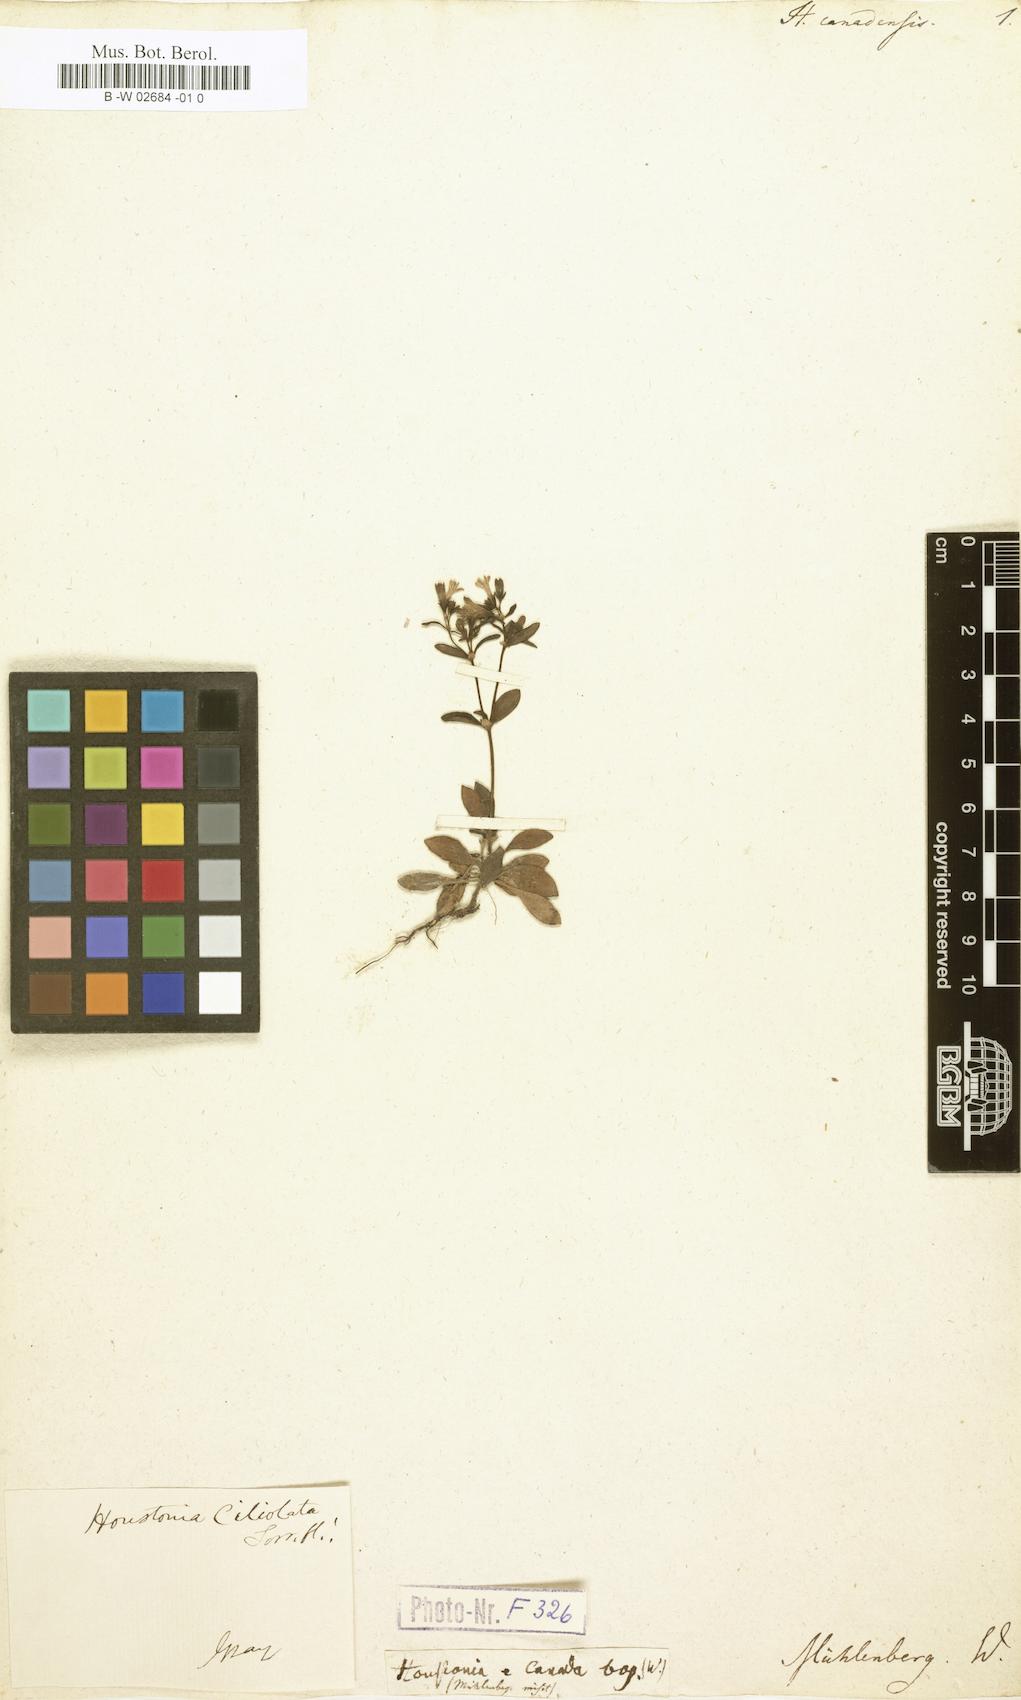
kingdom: Plantae
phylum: Tracheophyta
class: Magnoliopsida
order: Gentianales
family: Rubiaceae
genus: Houstonia
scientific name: Houstonia canadensis
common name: Fringed houstonia
